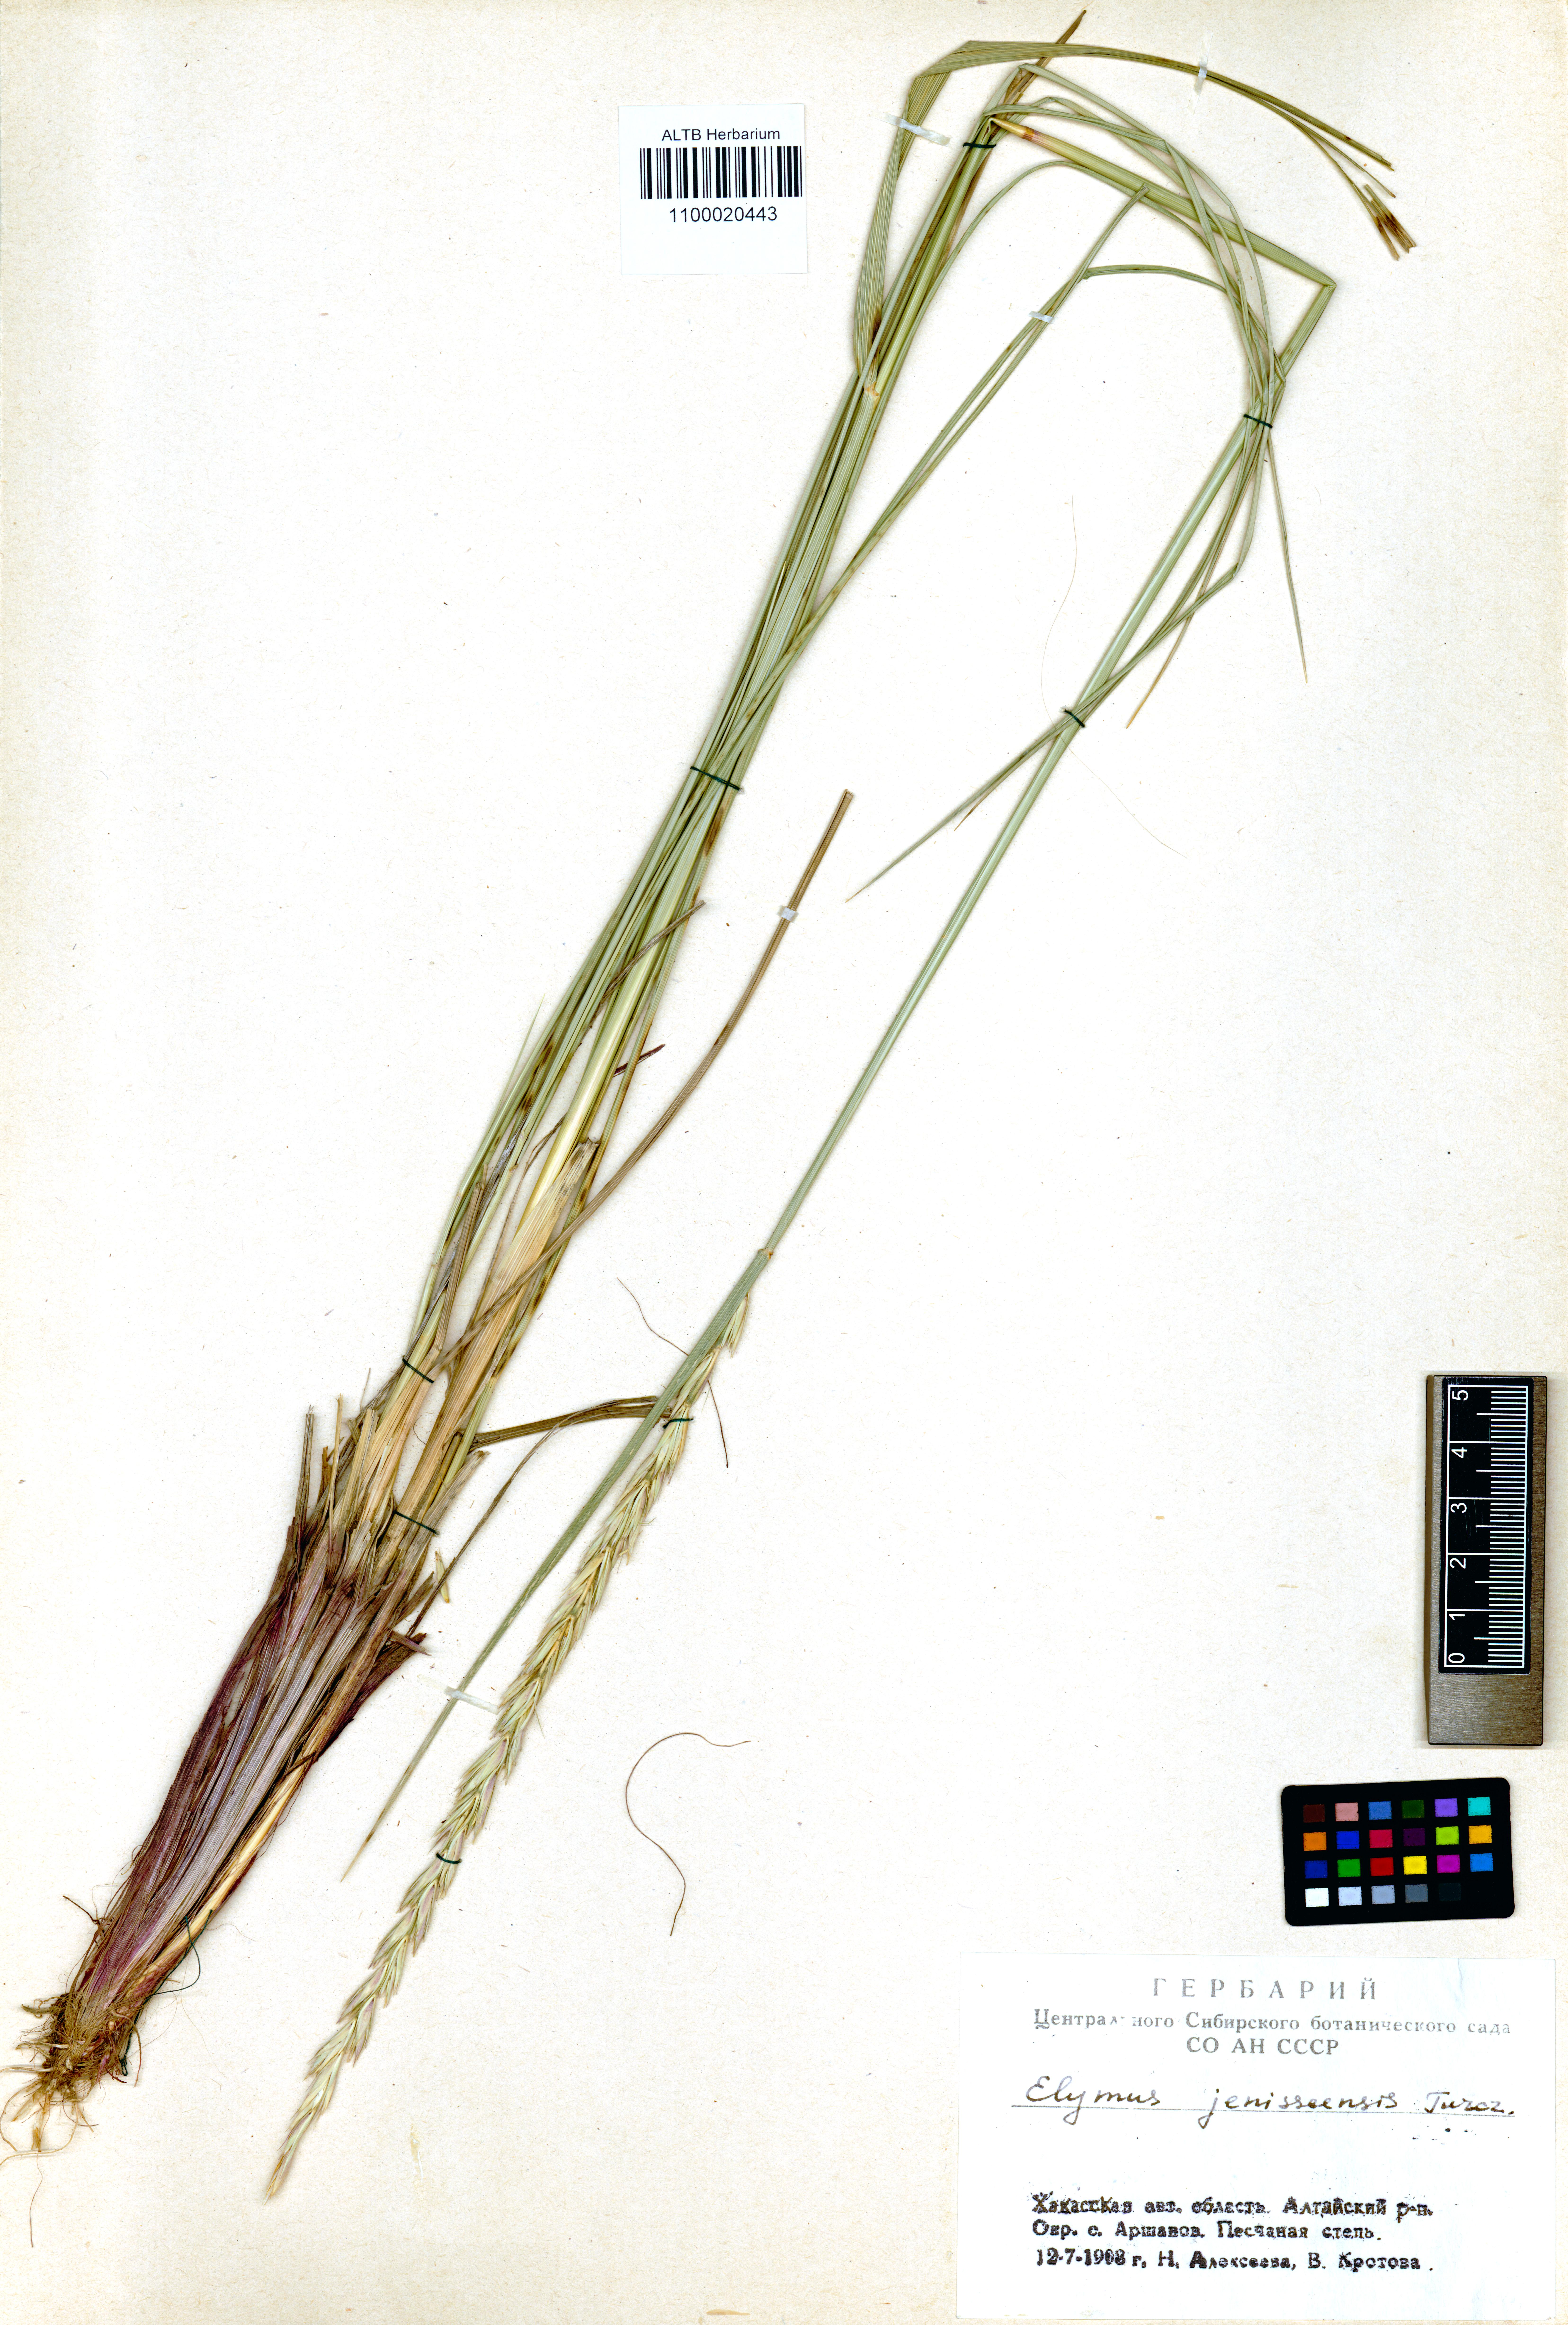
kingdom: Plantae
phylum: Tracheophyta
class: Liliopsida
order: Poales
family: Poaceae
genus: Leymus
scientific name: Leymus jenisseiensis
